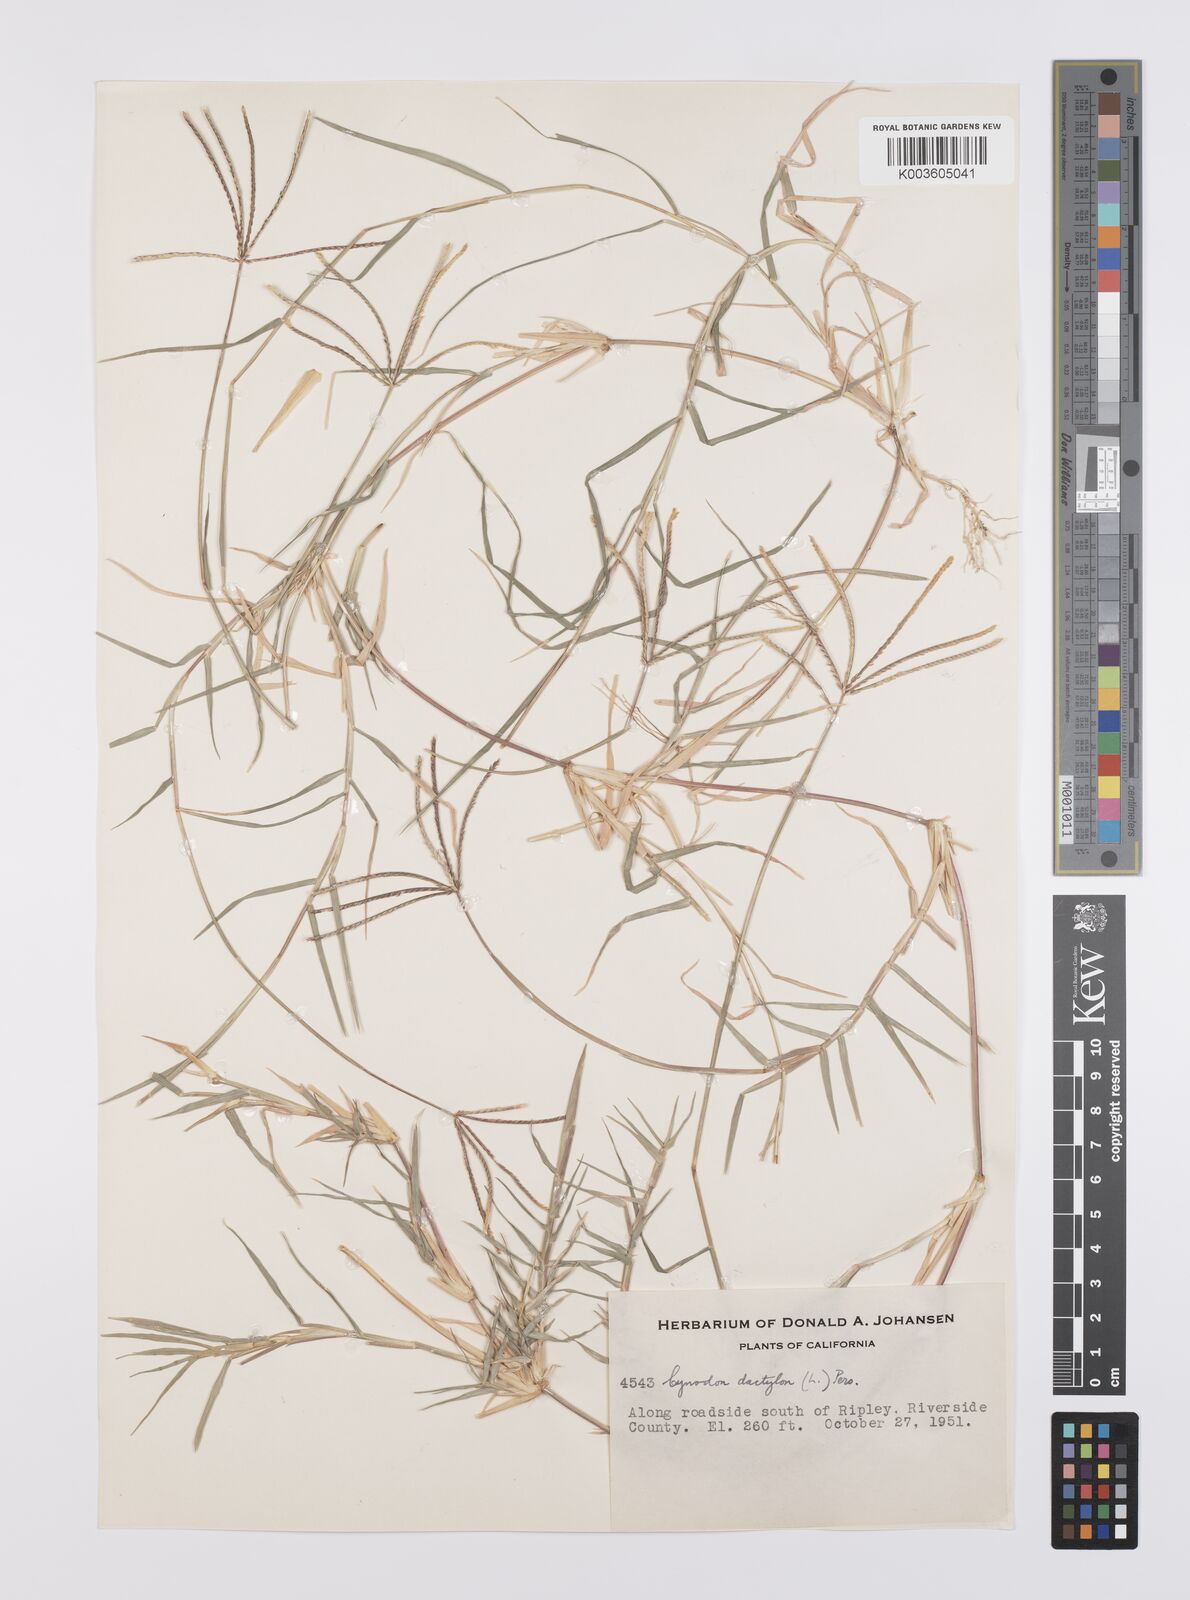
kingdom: Plantae
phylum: Tracheophyta
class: Liliopsida
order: Poales
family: Poaceae
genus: Cynodon
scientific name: Cynodon dactylon
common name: Bermuda grass
